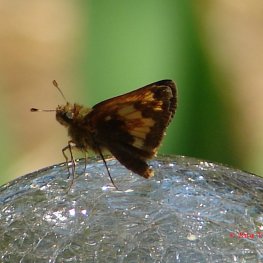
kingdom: Animalia
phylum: Arthropoda
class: Insecta
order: Lepidoptera
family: Hesperiidae
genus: Lon
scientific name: Lon hobomok
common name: Hobomok Skipper
